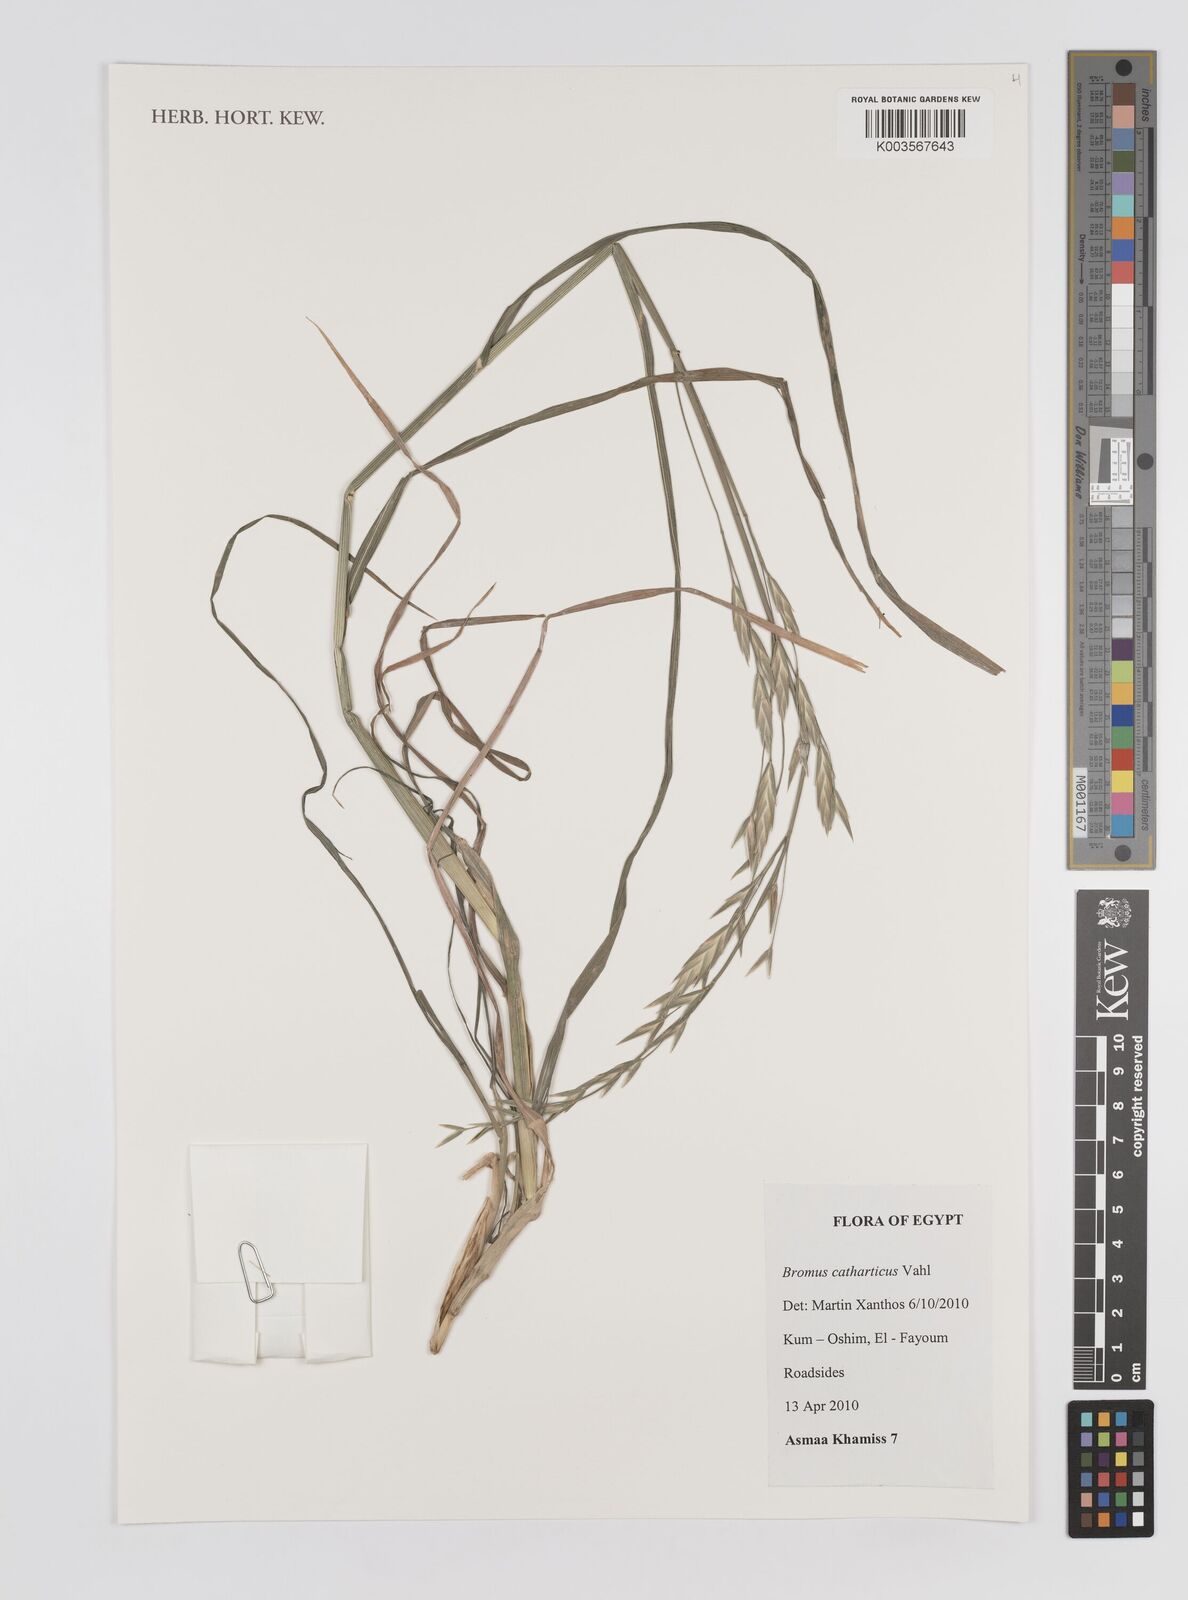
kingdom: Plantae
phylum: Tracheophyta
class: Liliopsida
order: Poales
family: Poaceae
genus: Bromus
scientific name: Bromus catharticus
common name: Rescuegrass
